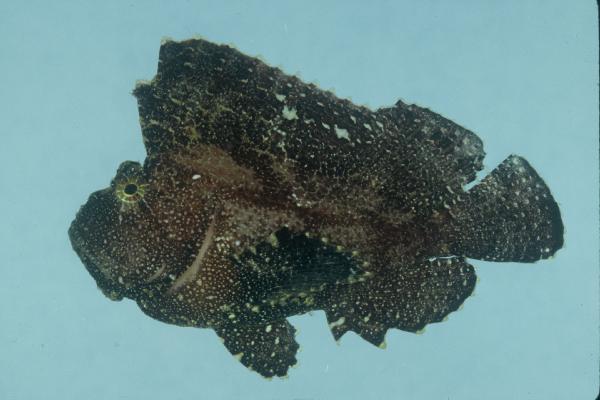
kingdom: Animalia
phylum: Chordata
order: Scorpaeniformes
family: Scorpaenidae
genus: Taenianotus
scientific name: Taenianotus triacanthus
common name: Leaf scorpionfish
